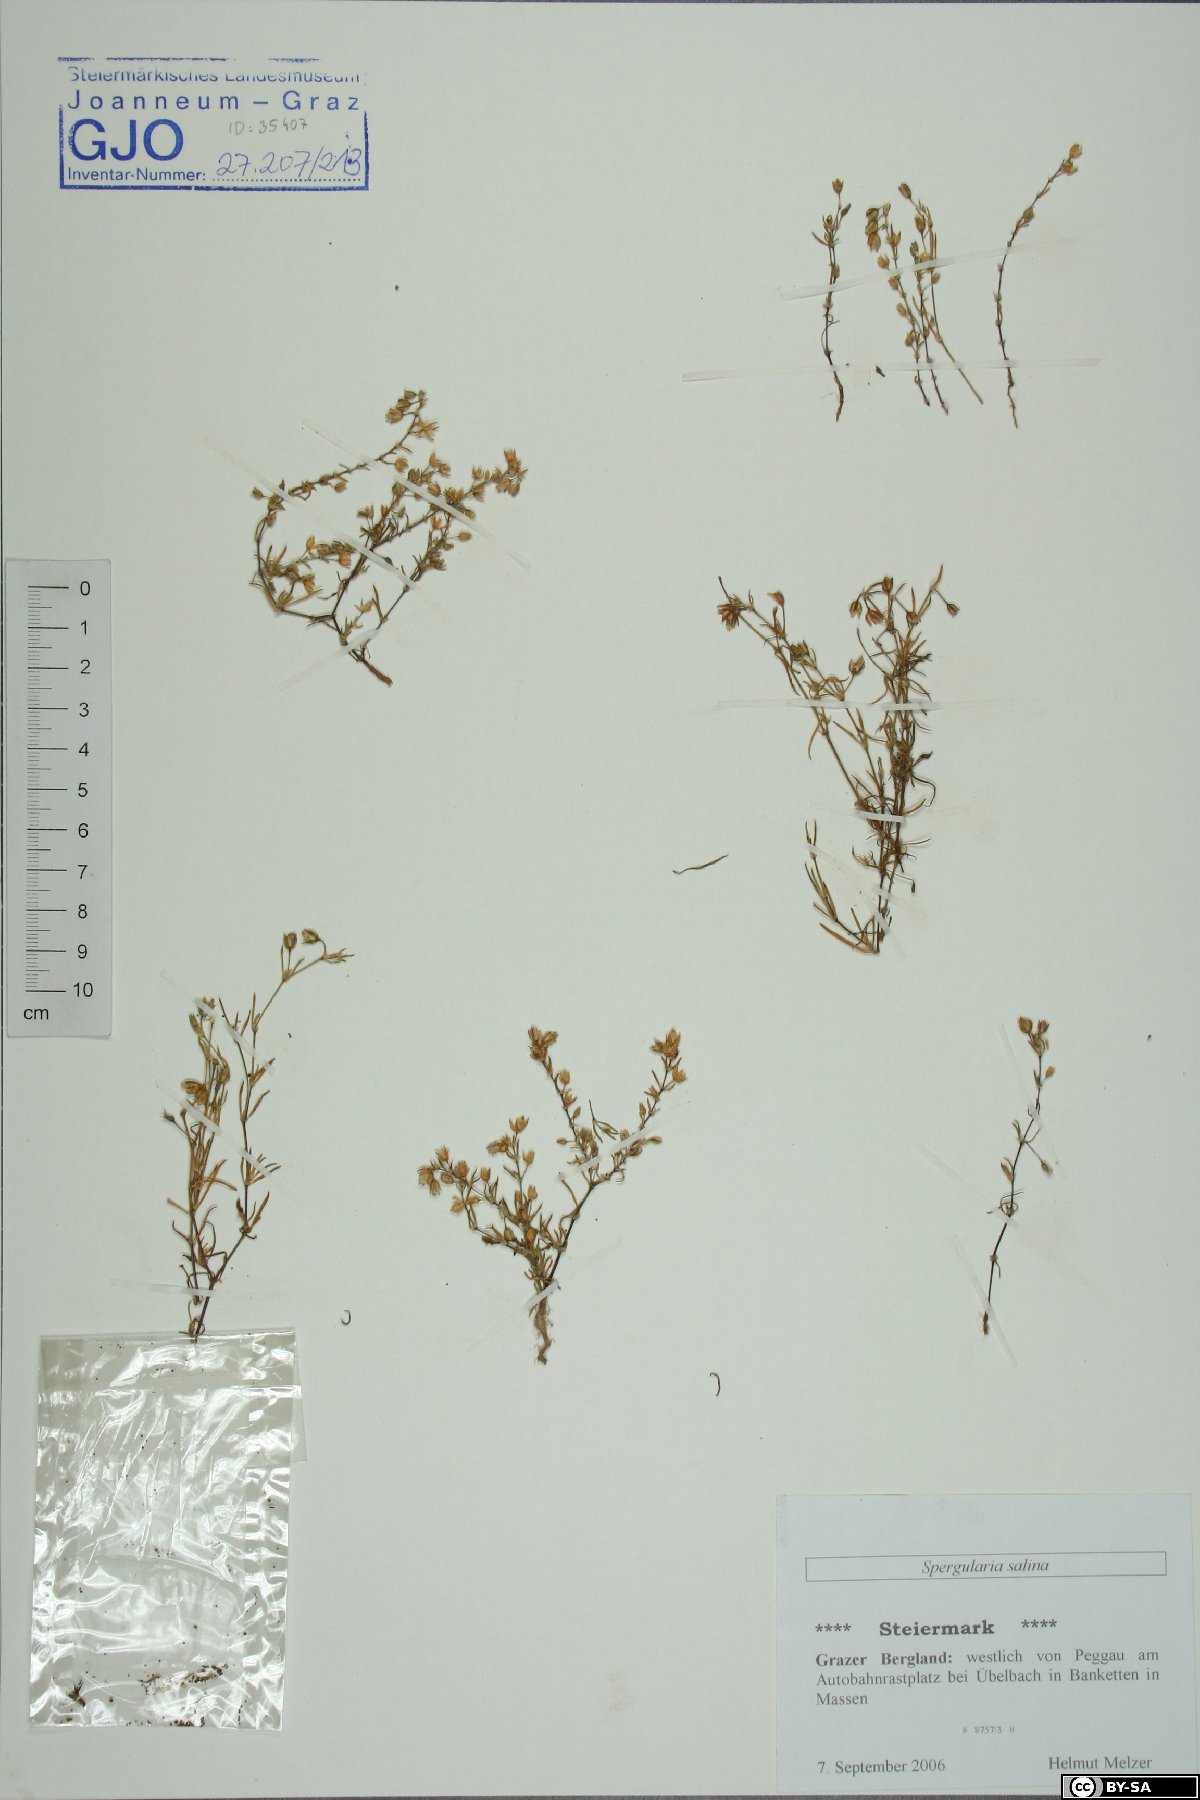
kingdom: Plantae
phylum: Tracheophyta
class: Magnoliopsida
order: Caryophyllales
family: Caryophyllaceae
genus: Spergularia
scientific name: Spergularia marina
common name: Lesser sea-spurrey
